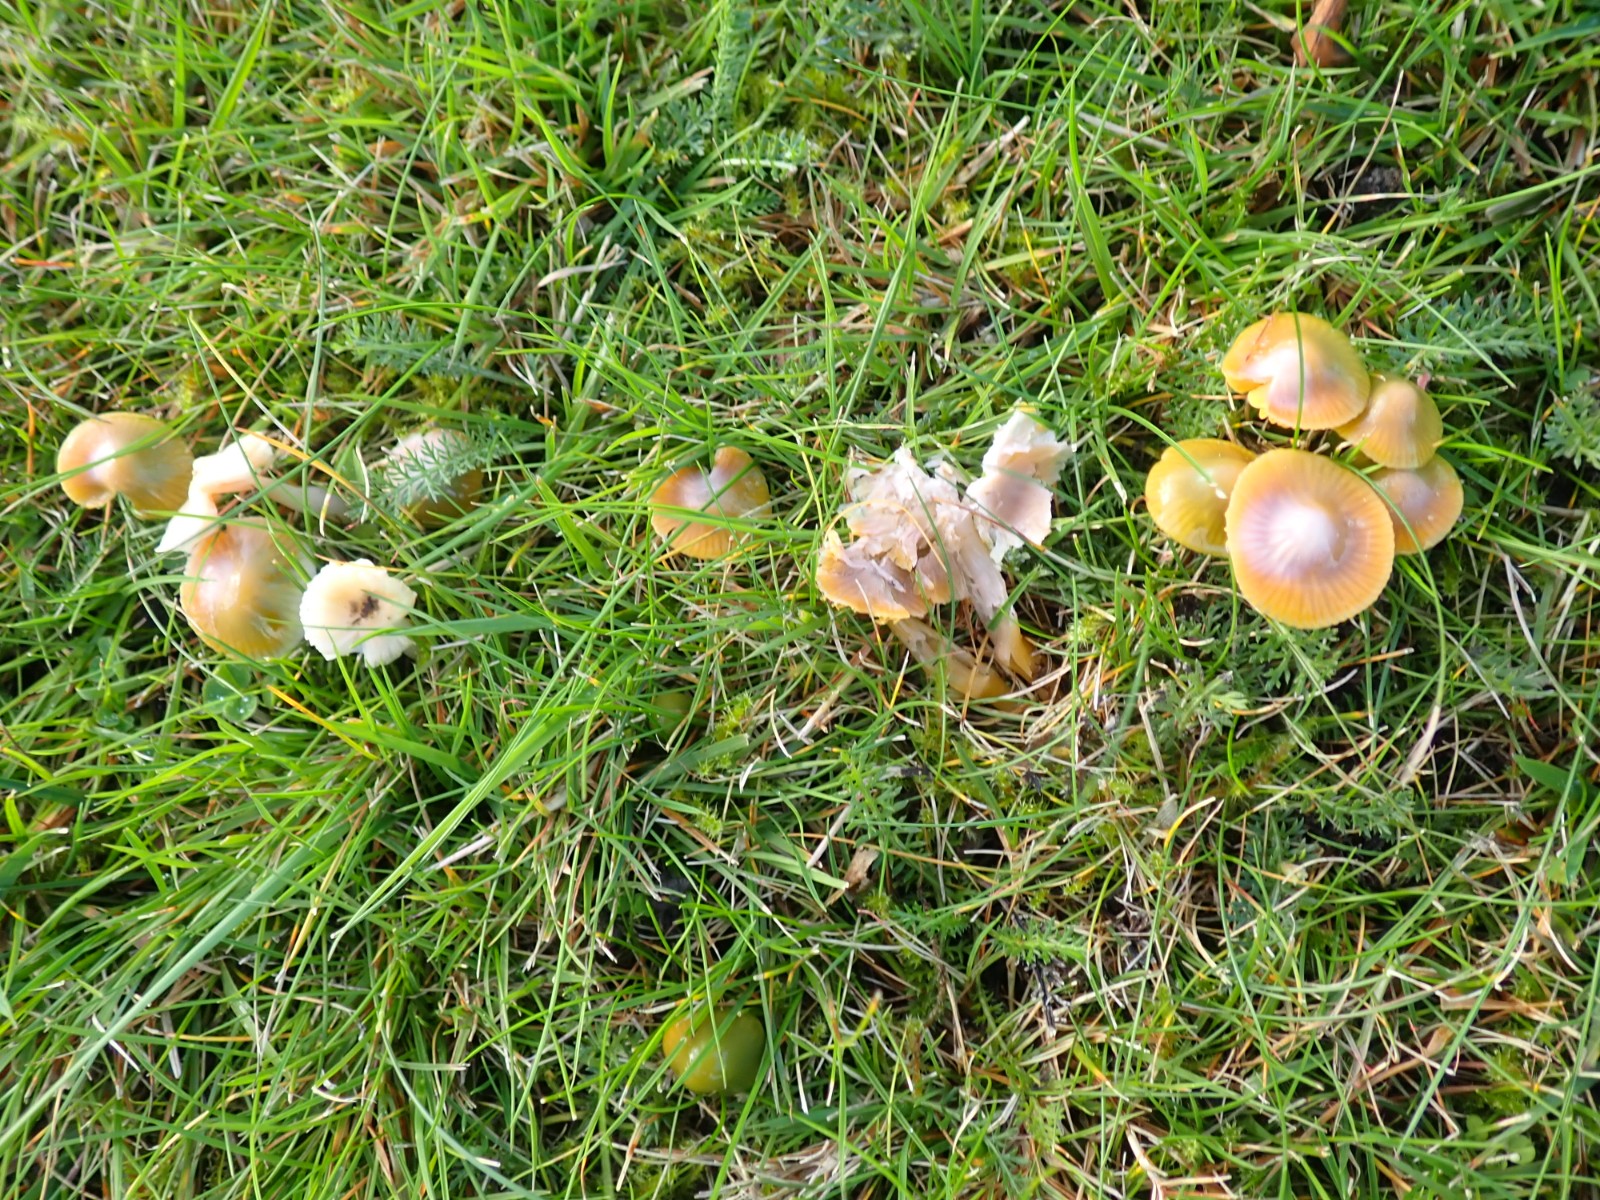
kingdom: Fungi
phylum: Basidiomycota
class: Agaricomycetes
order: Agaricales
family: Hygrophoraceae
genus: Gliophorus
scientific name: Gliophorus psittacinus
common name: papegøje-vokshat
